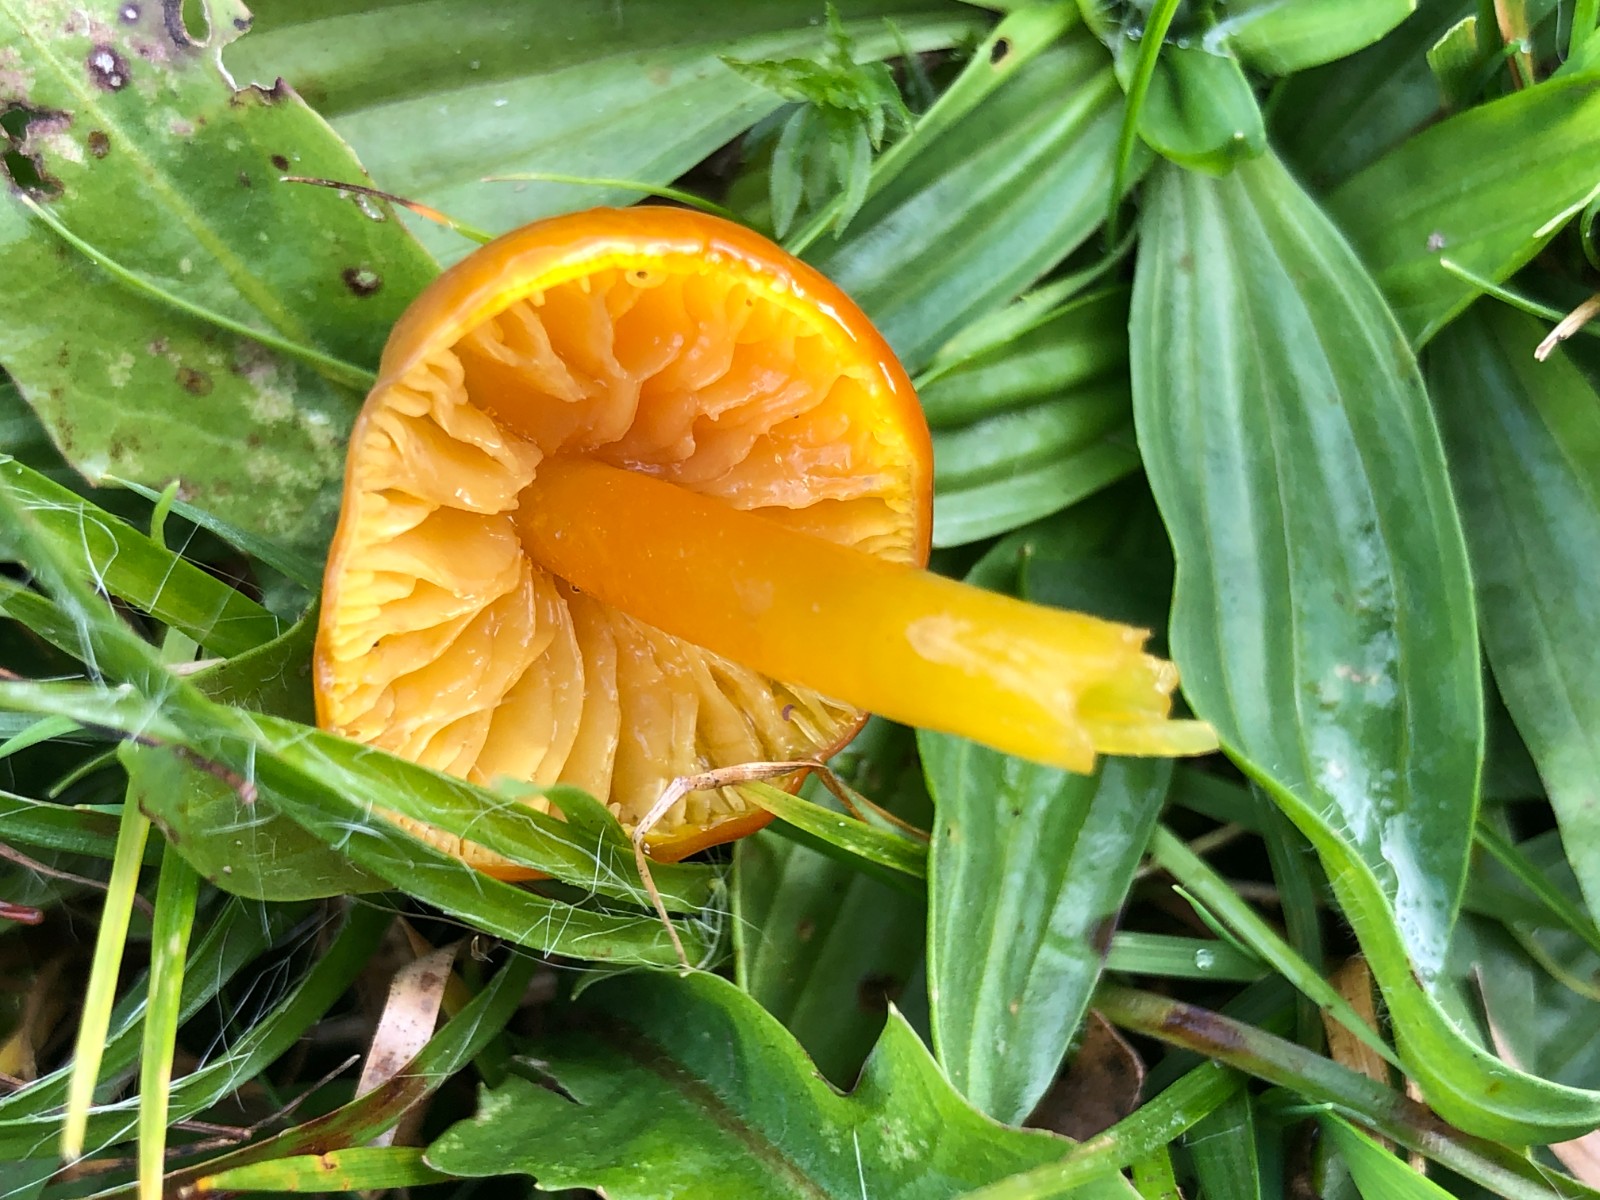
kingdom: Fungi
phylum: Basidiomycota
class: Agaricomycetes
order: Agaricales
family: Hygrophoraceae
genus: Hygrocybe
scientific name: Hygrocybe chlorophana
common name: gul vokshat
